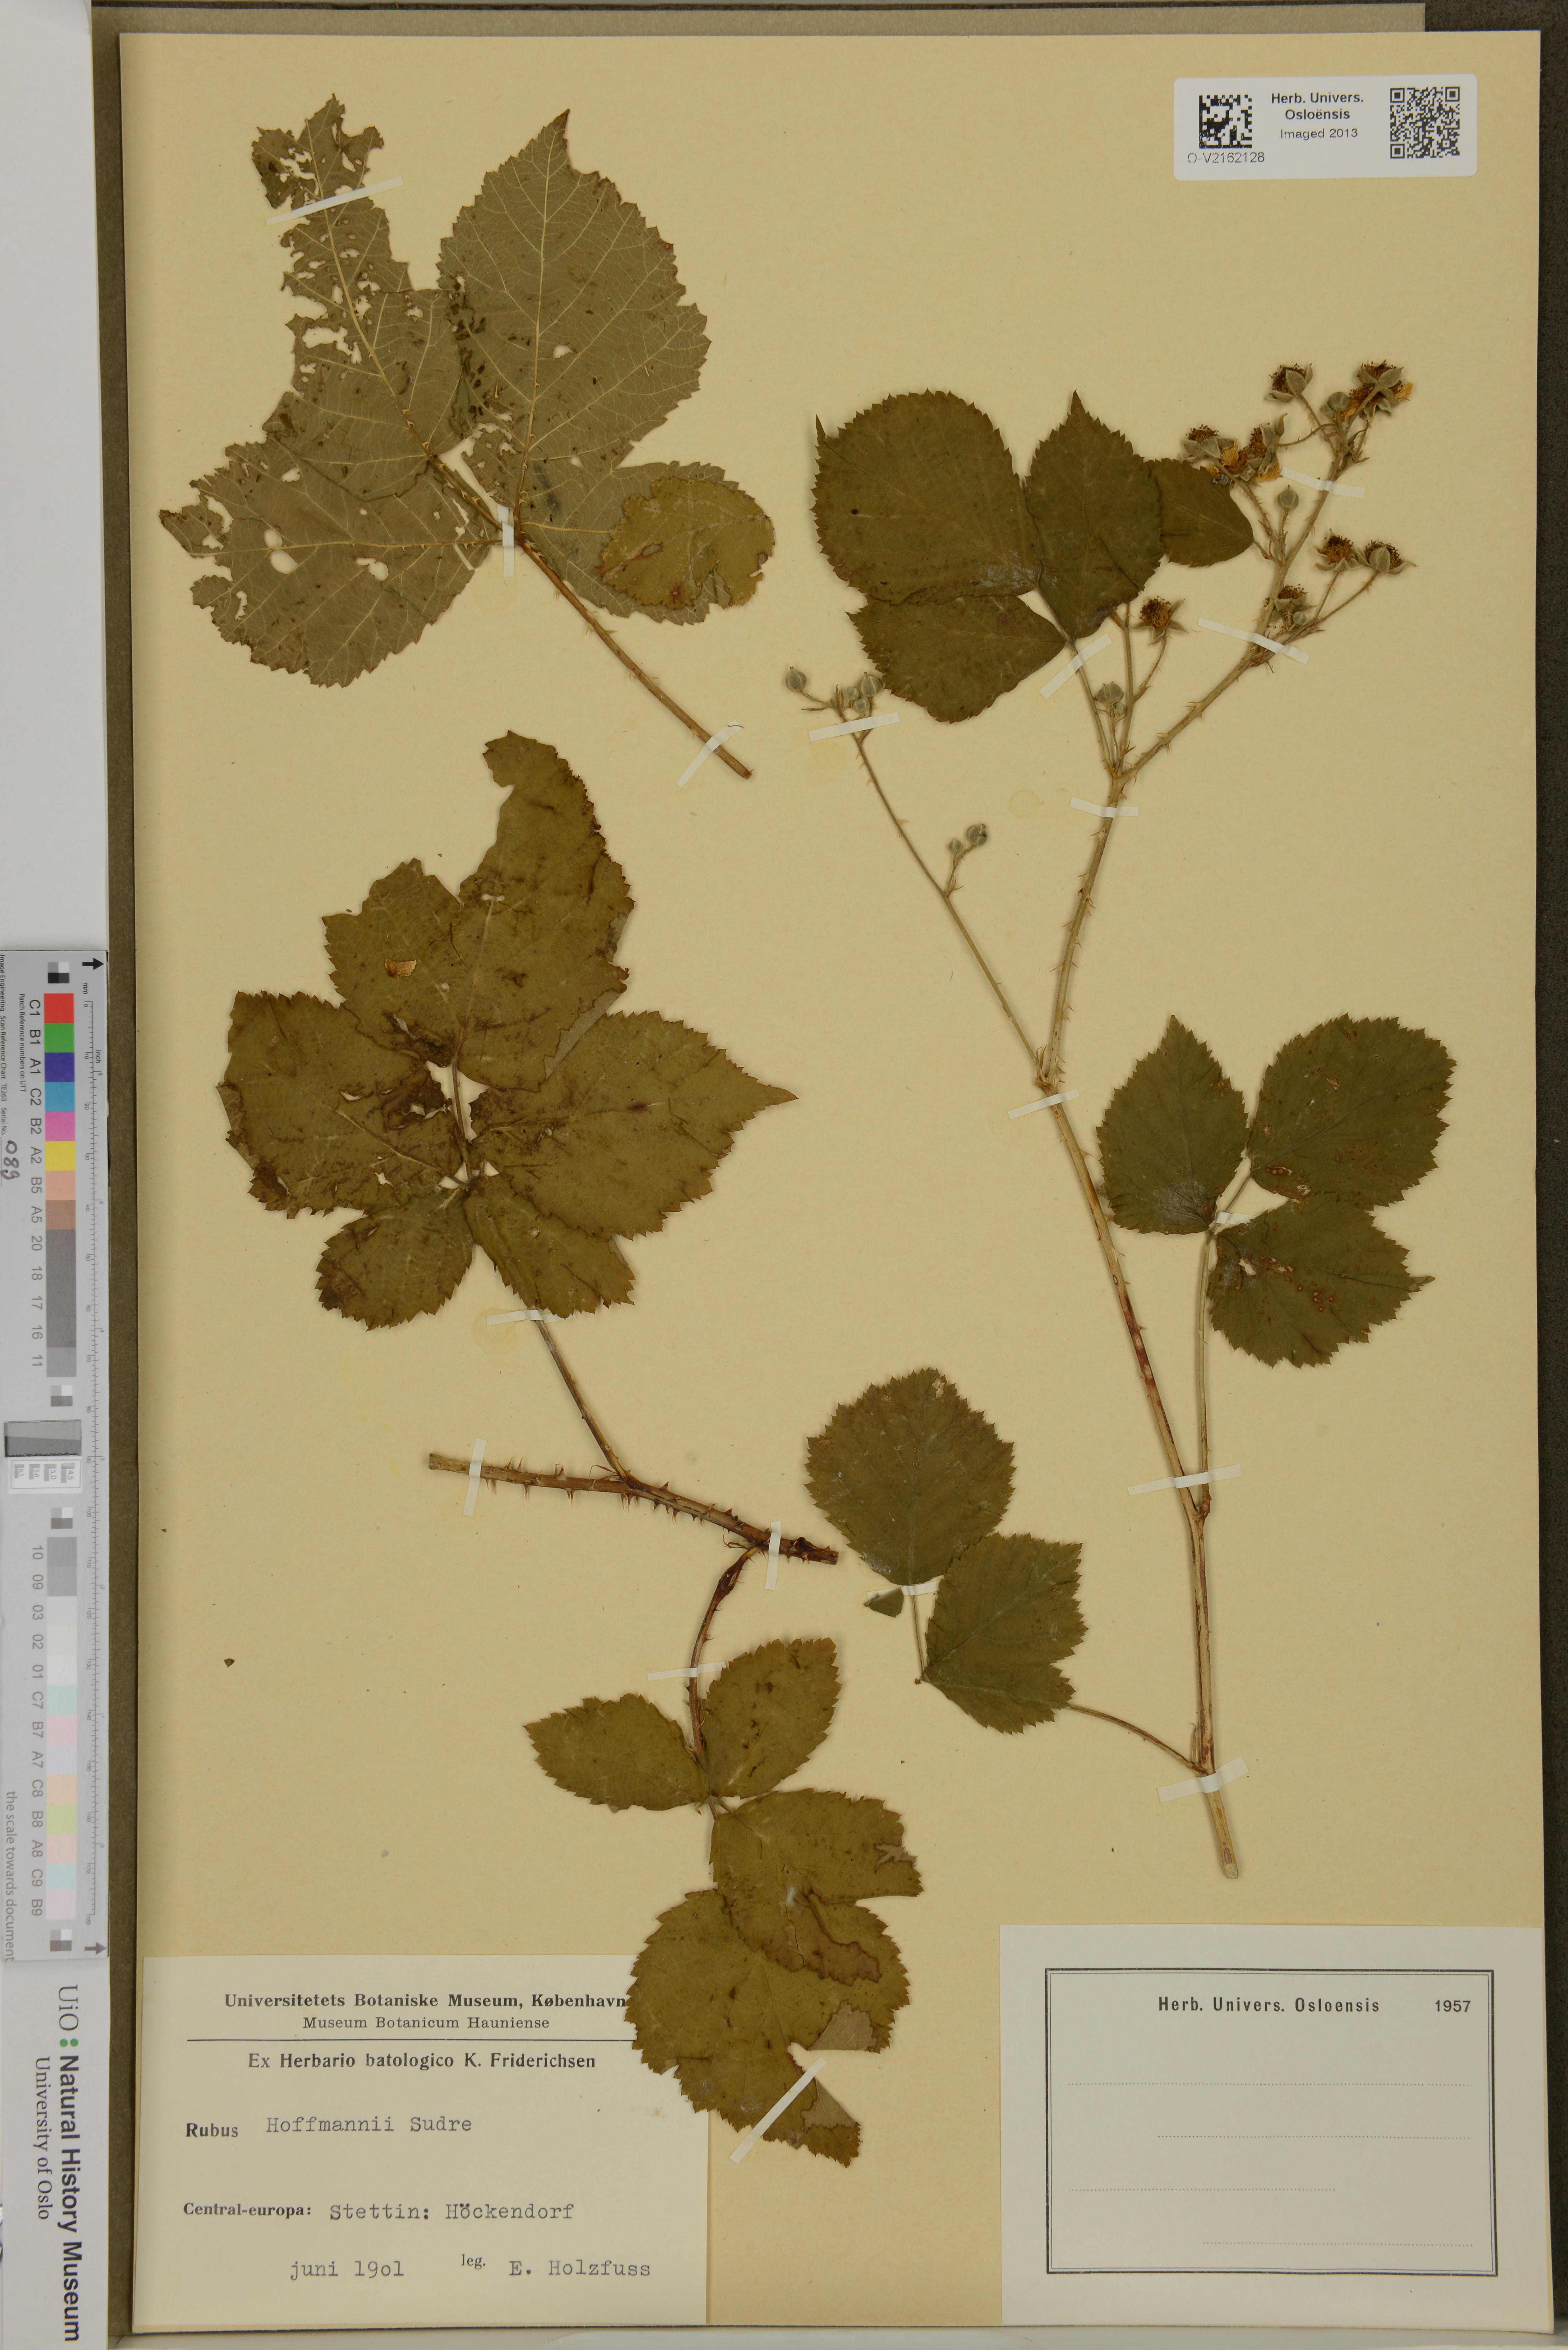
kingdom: Plantae
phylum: Tracheophyta
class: Magnoliopsida
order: Rosales
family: Rosaceae
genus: Rubus
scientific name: Rubus hofmannii
